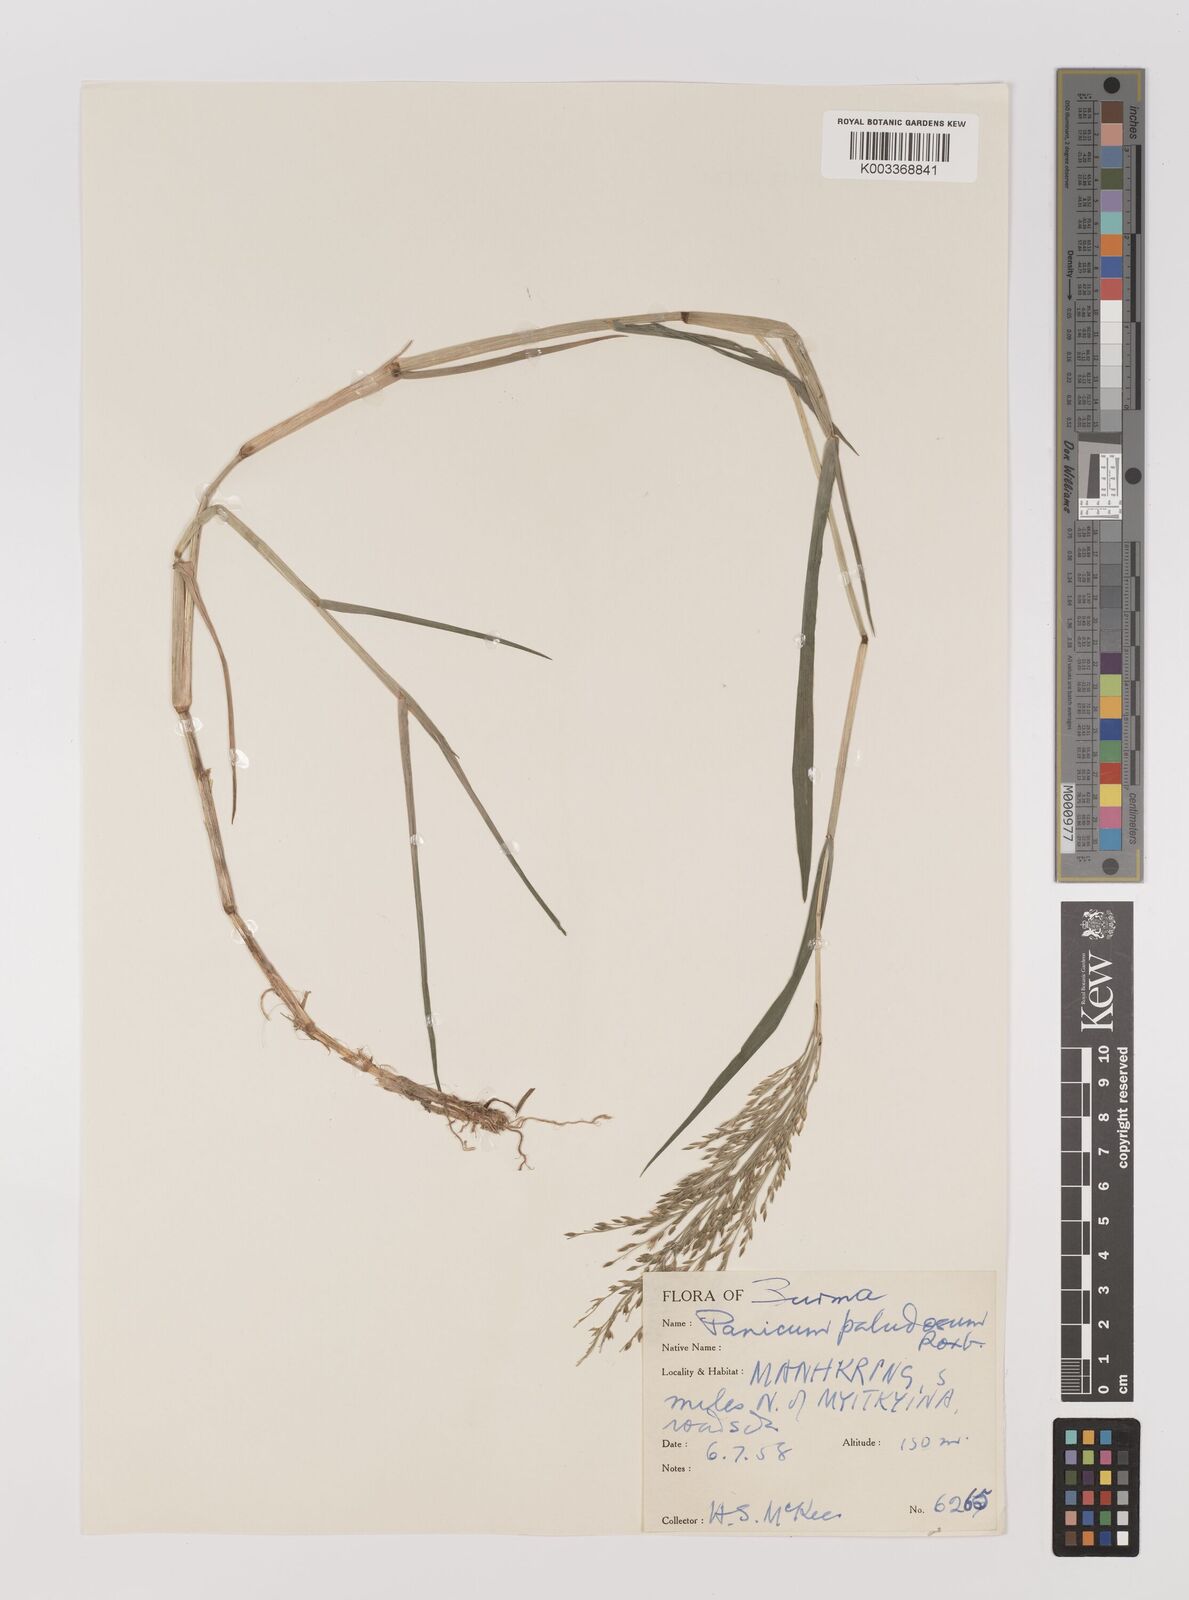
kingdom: Plantae
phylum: Tracheophyta
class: Liliopsida
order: Poales
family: Poaceae
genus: Louisiella
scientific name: Louisiella paludosa
